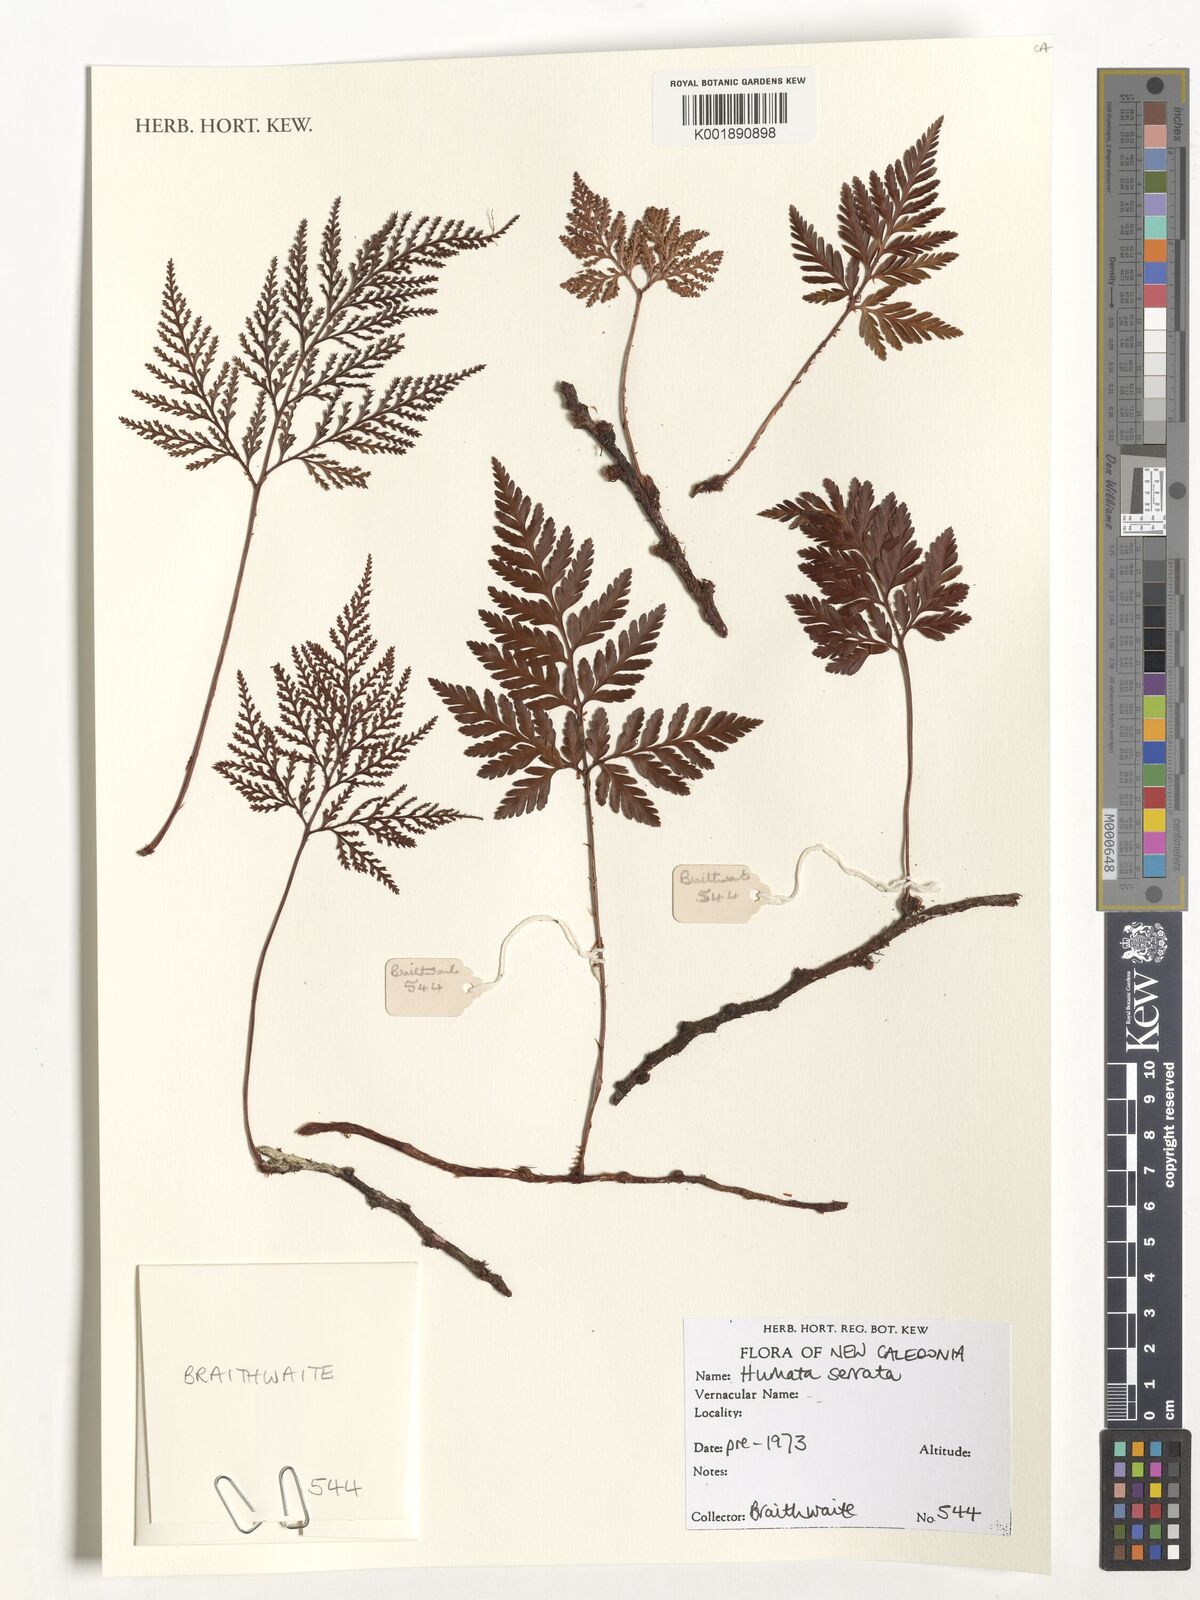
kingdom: Plantae
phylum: Tracheophyta
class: Polypodiopsida
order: Polypodiales
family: Davalliaceae
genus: Davallia
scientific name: Davallia
